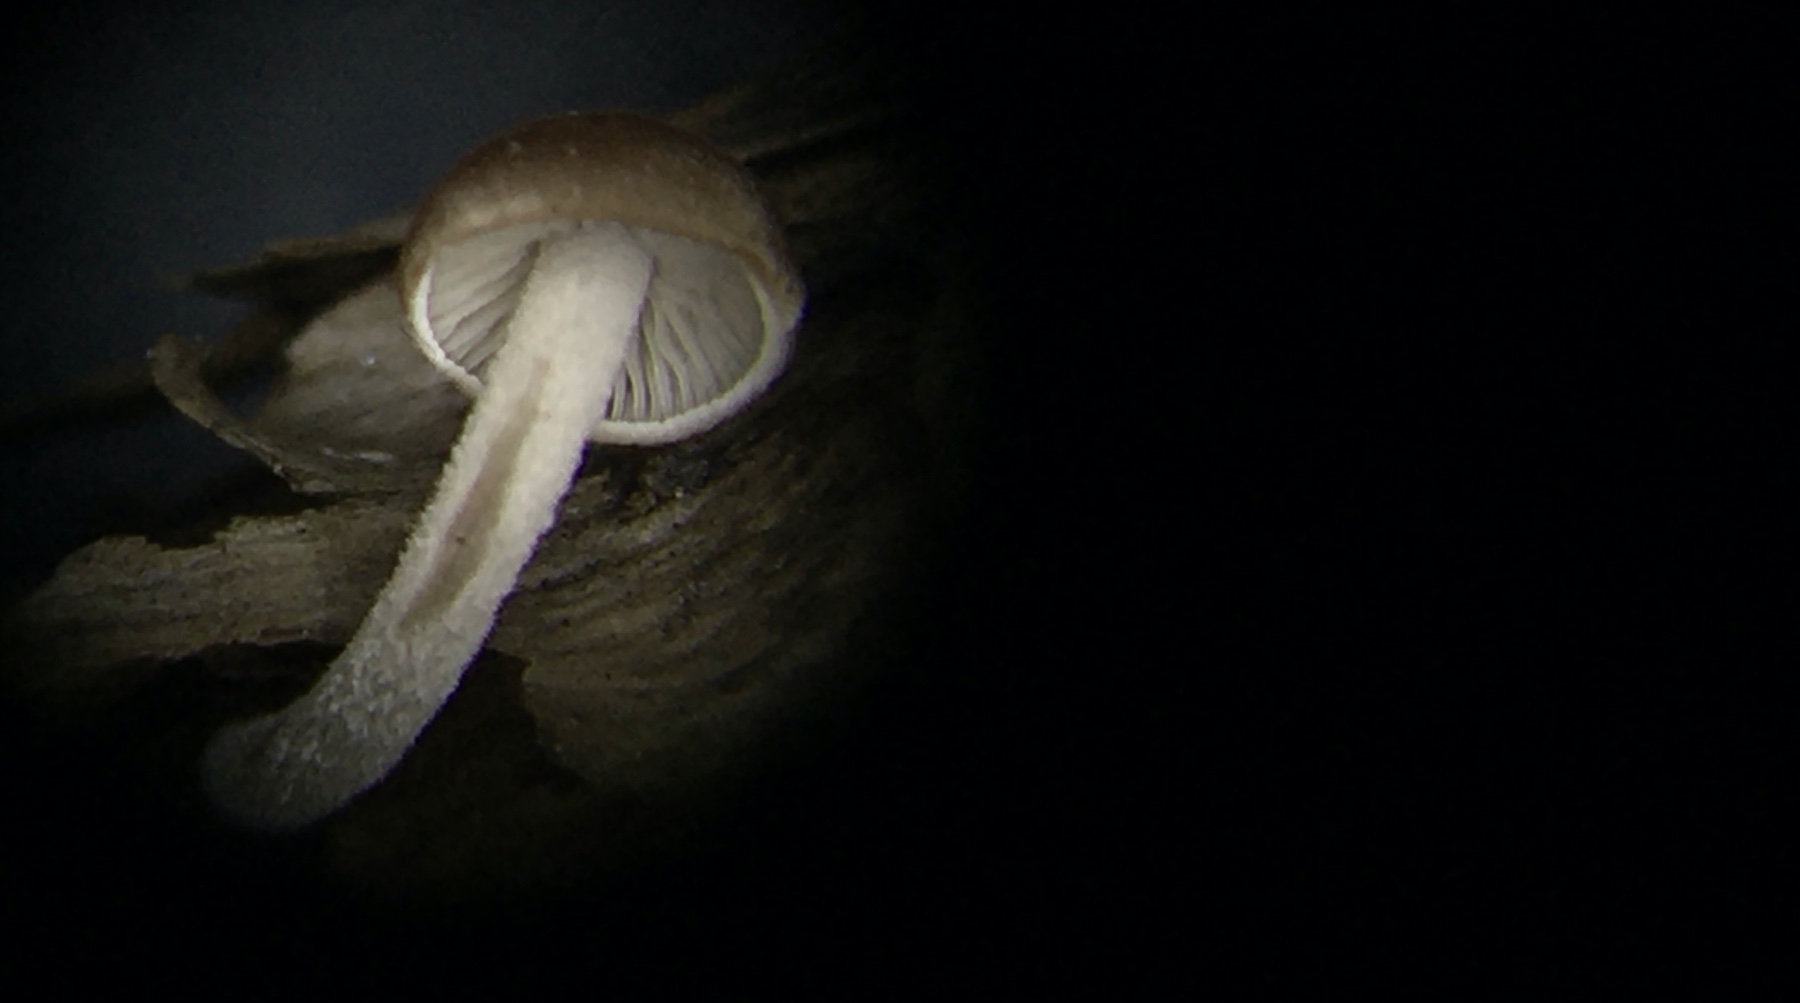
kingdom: Fungi
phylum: Basidiomycota
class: Agaricomycetes
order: Agaricales
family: Marasmiaceae
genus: Baeospora
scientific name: Baeospora myosura
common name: koglebruskhat
